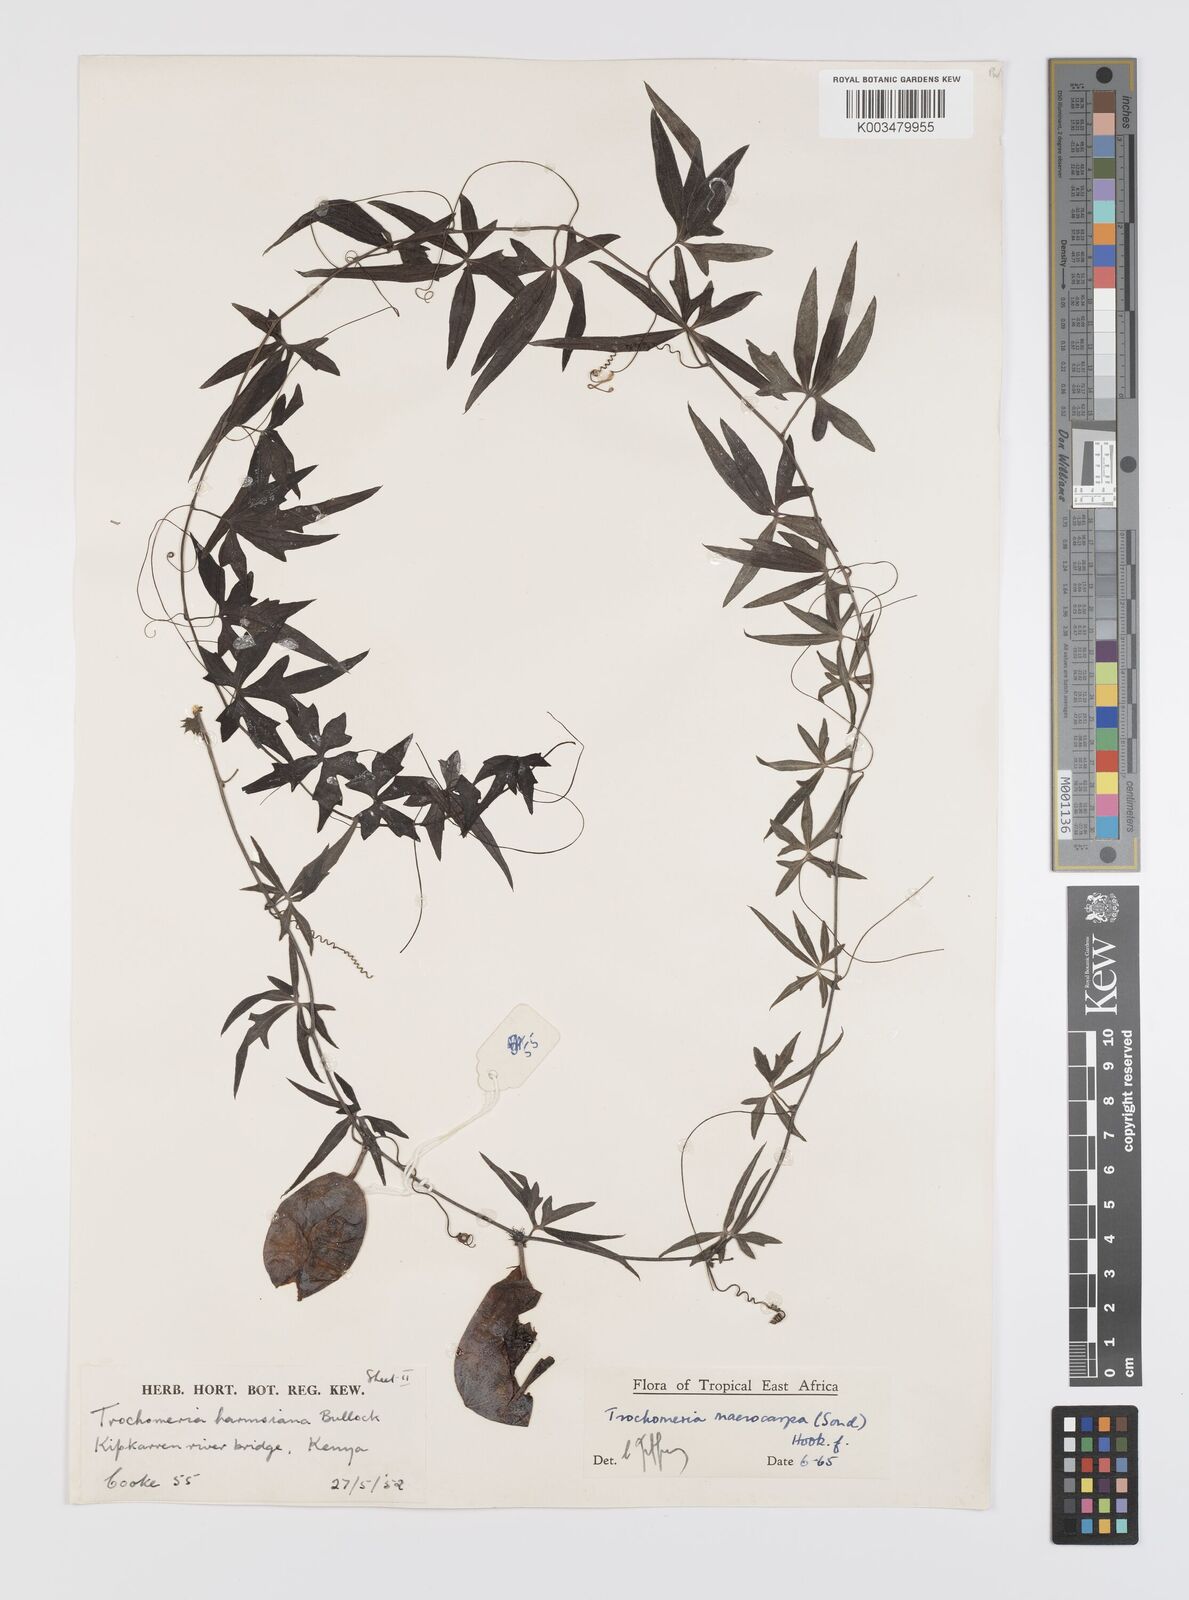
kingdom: Plantae
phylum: Tracheophyta
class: Magnoliopsida
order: Cucurbitales
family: Cucurbitaceae
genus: Trochomeria
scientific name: Trochomeria macrocarpa
